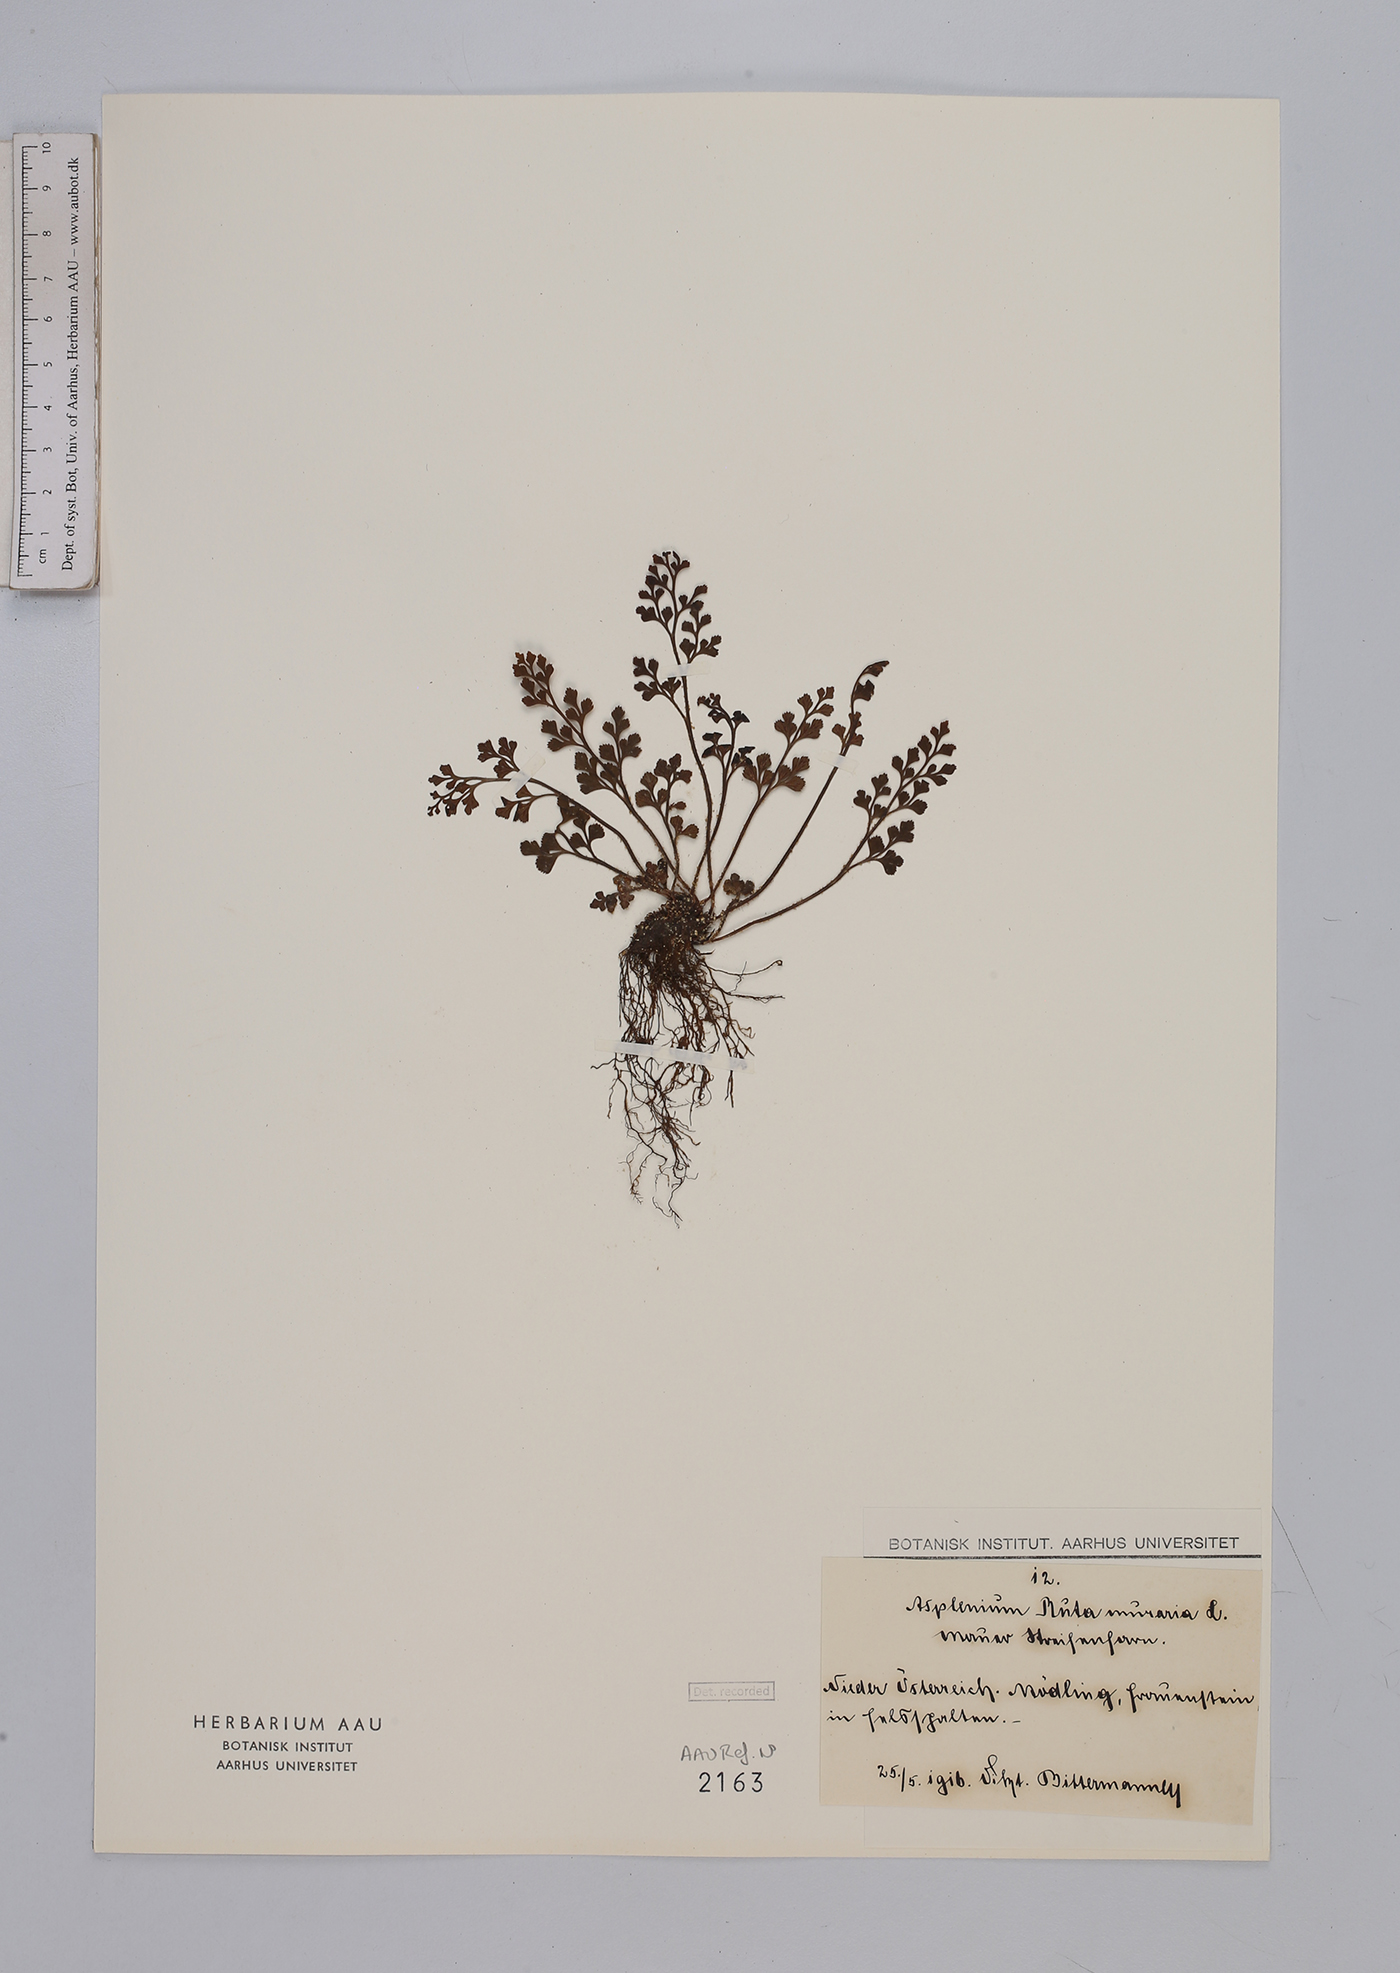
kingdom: Plantae
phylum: Tracheophyta
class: Polypodiopsida
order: Polypodiales
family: Aspleniaceae
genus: Asplenium
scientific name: Asplenium ruta-muraria
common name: Wall-rue
